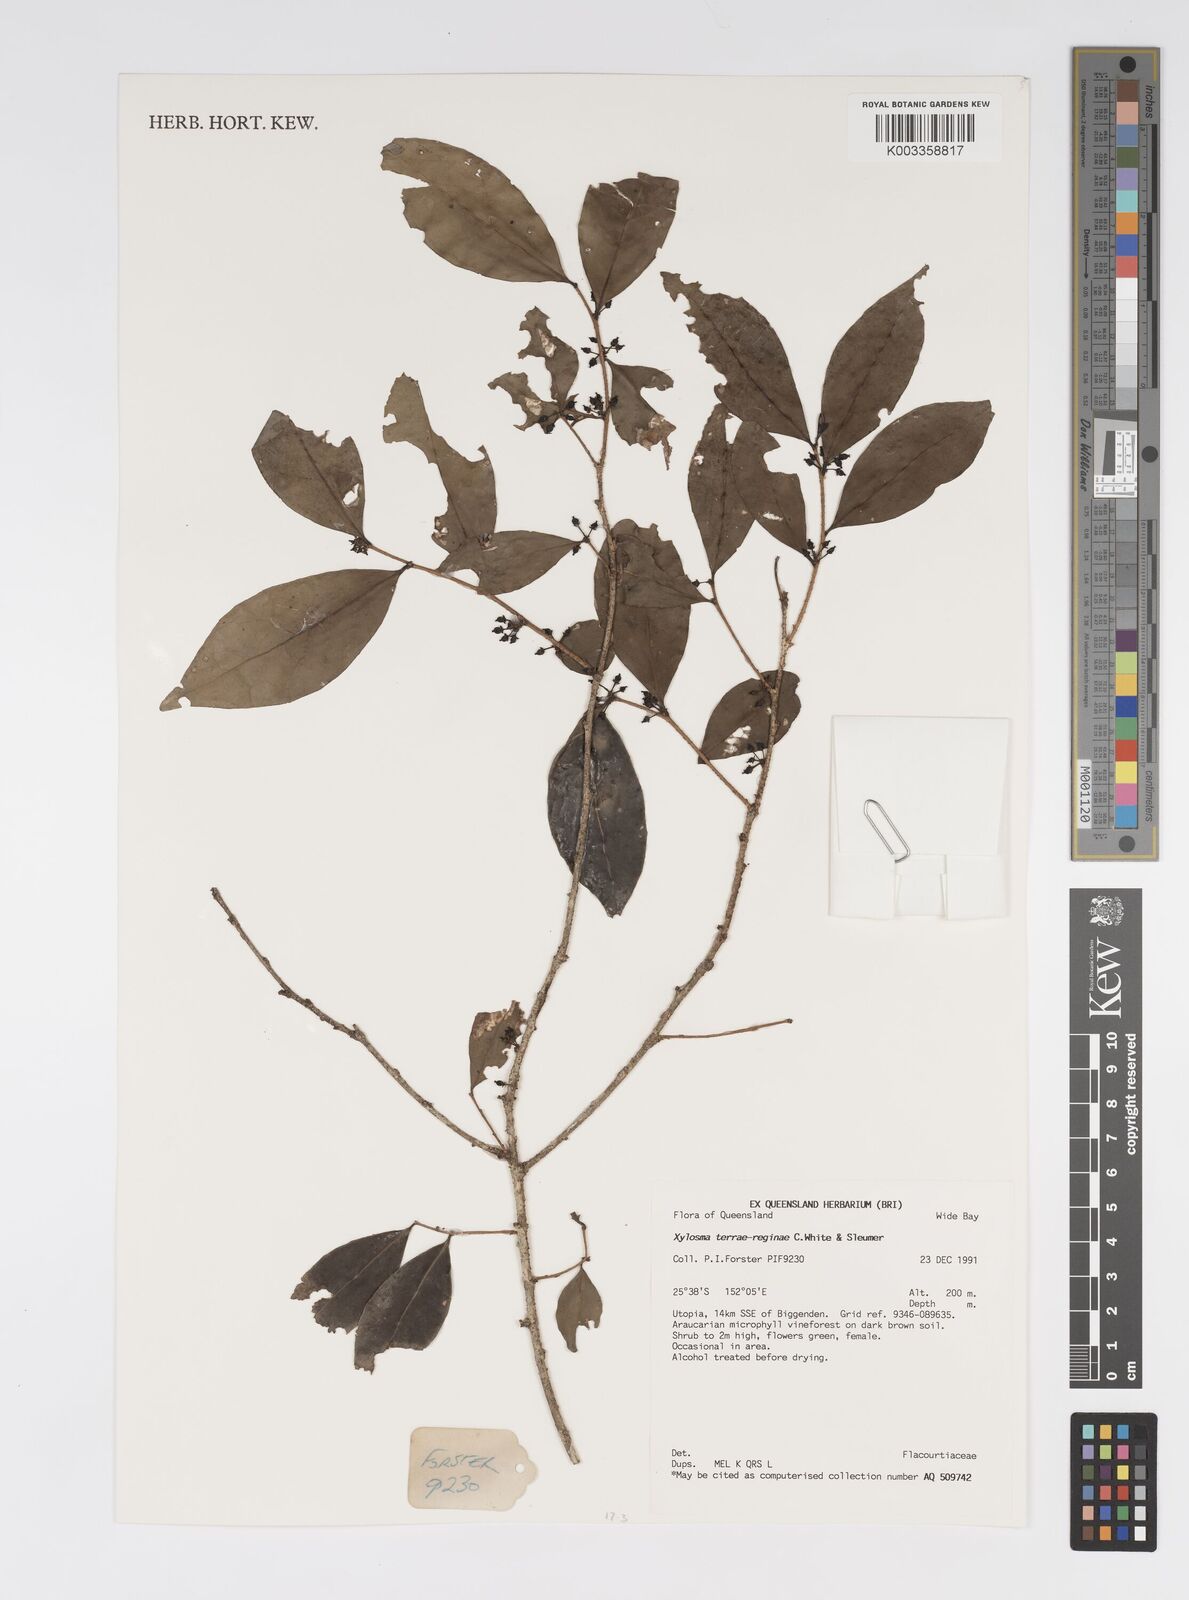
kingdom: Plantae
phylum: Tracheophyta
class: Magnoliopsida
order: Malpighiales
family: Salicaceae
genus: Xylosma
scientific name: Xylosma terrae-reginae
